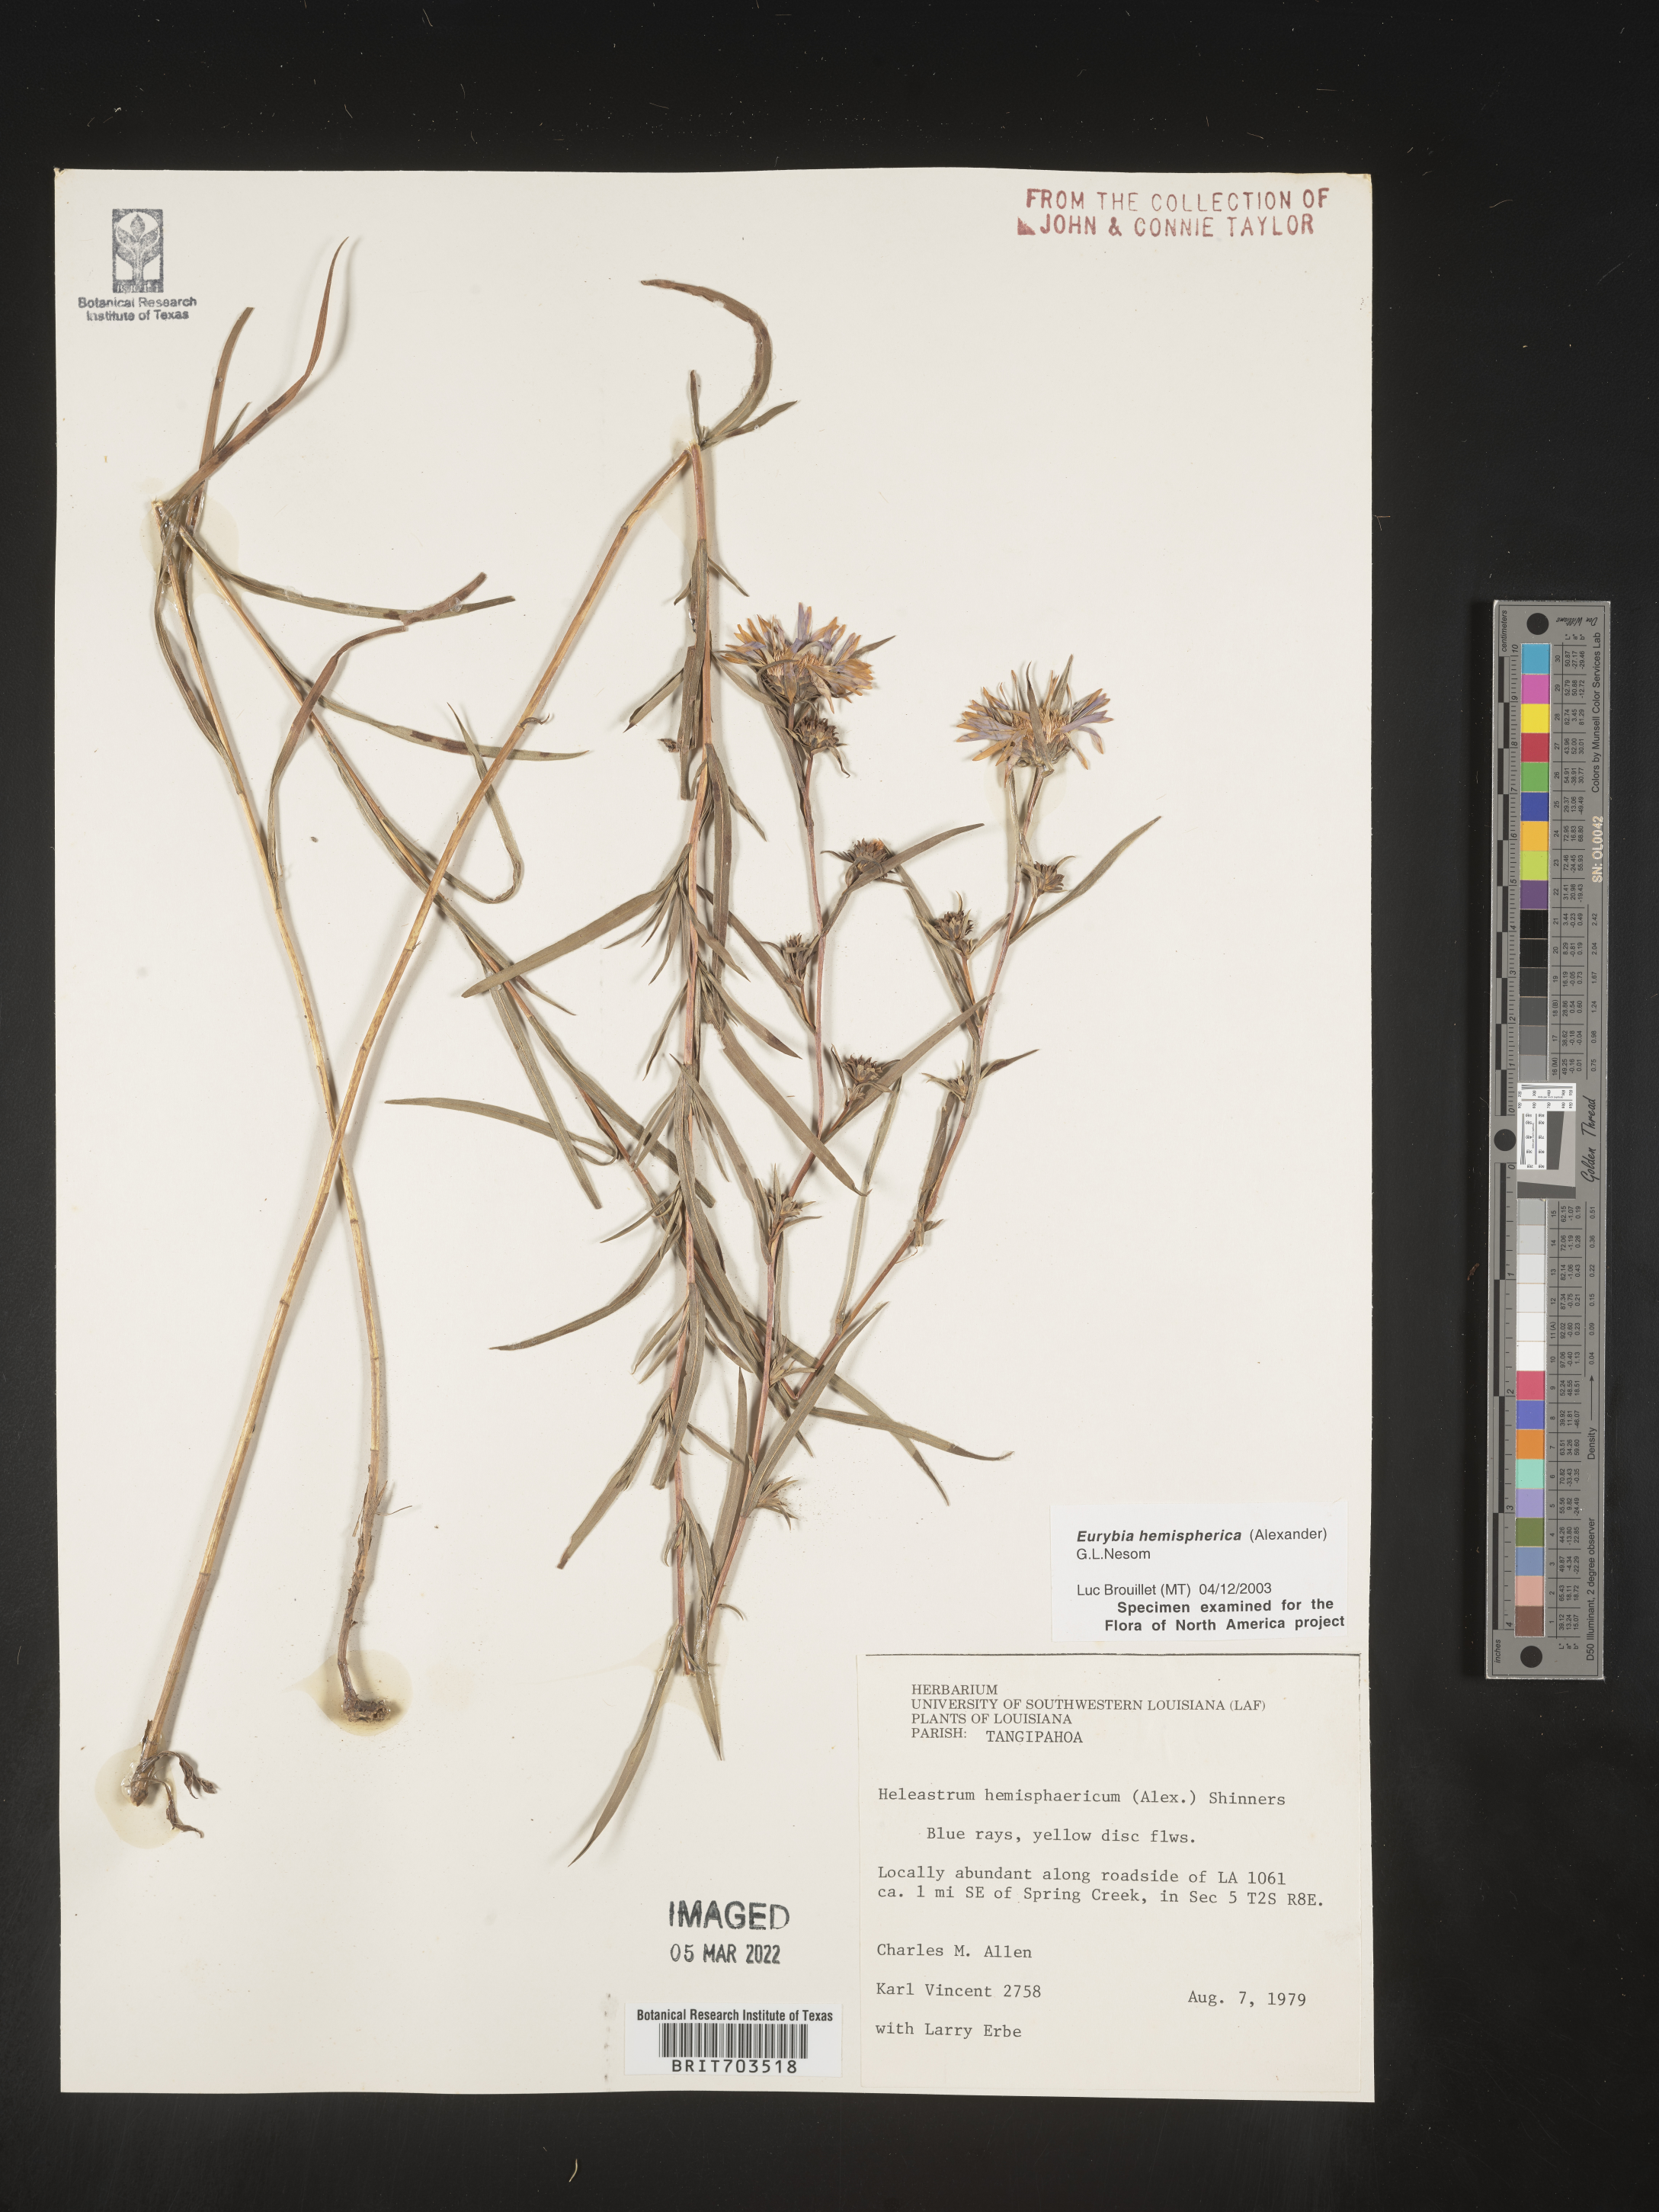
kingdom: Plantae
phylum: Tracheophyta
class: Magnoliopsida
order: Asterales
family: Asteraceae
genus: Eurybia
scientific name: Eurybia hemispherica
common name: Showy aster
